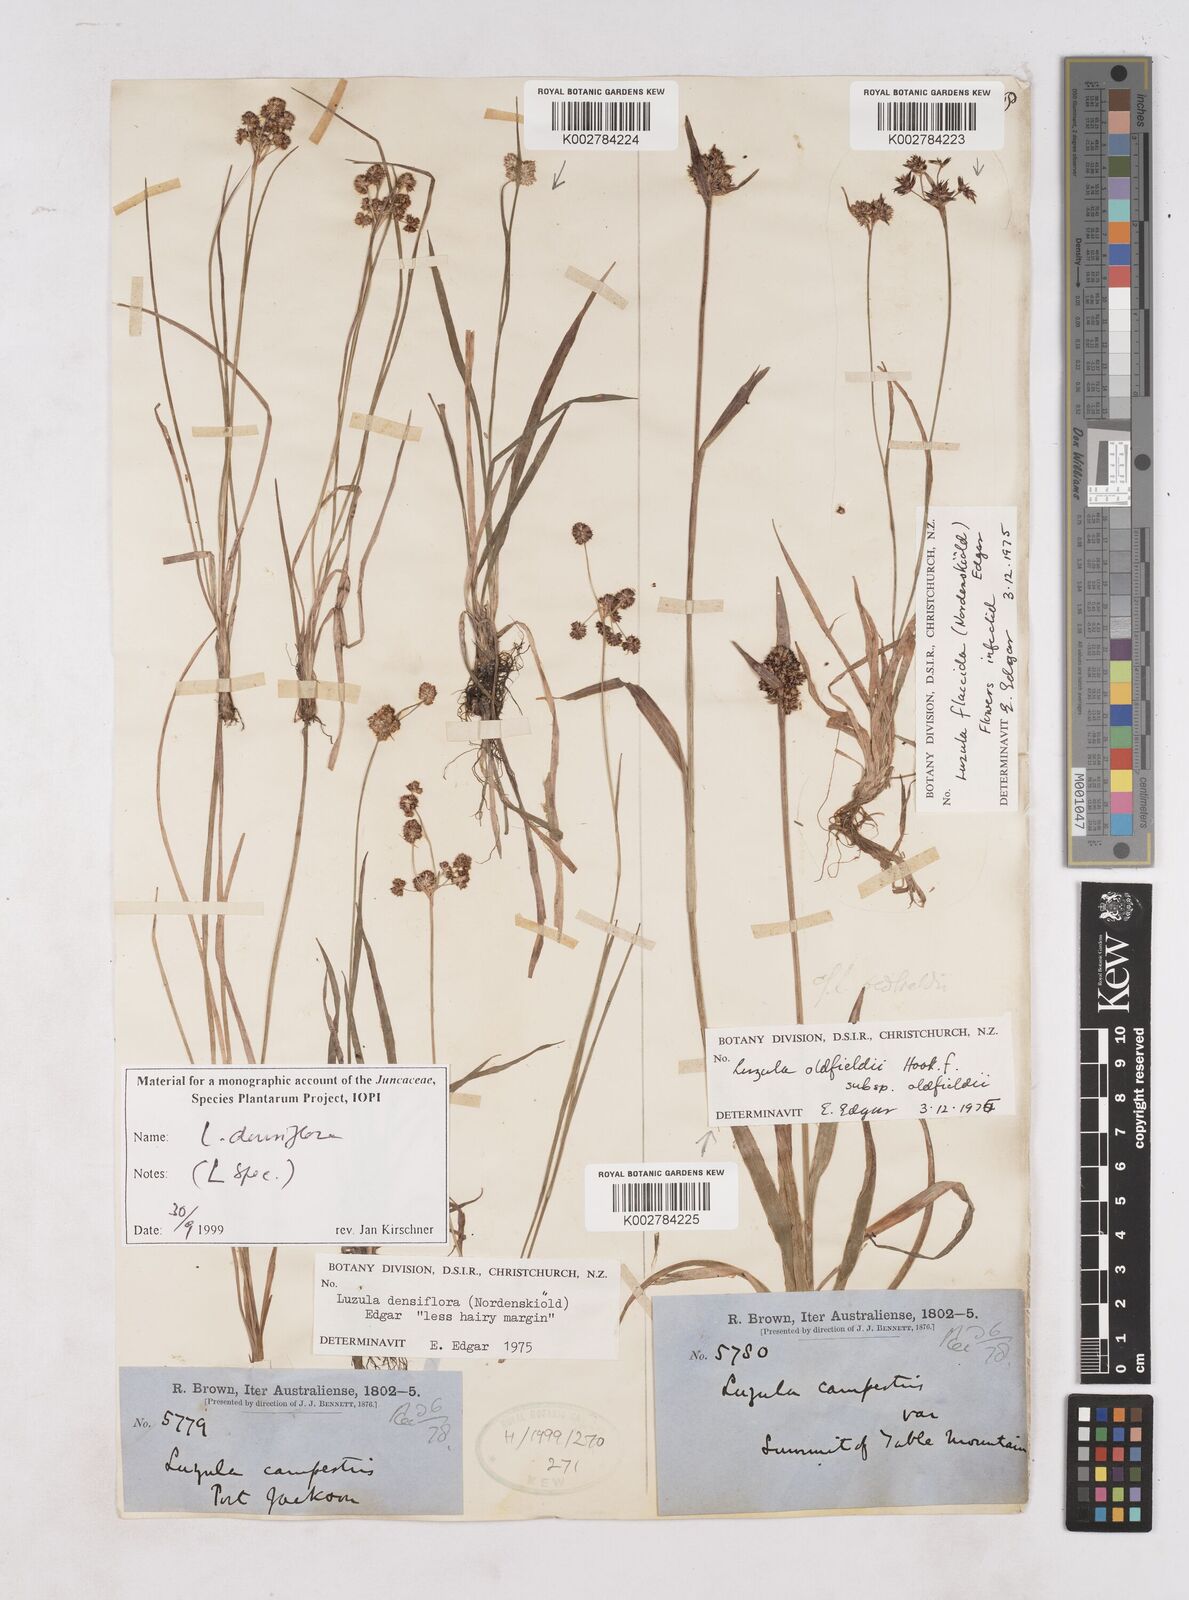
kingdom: Plantae
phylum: Tracheophyta
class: Liliopsida
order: Poales
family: Juncaceae
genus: Luzula
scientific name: Luzula densiflora
